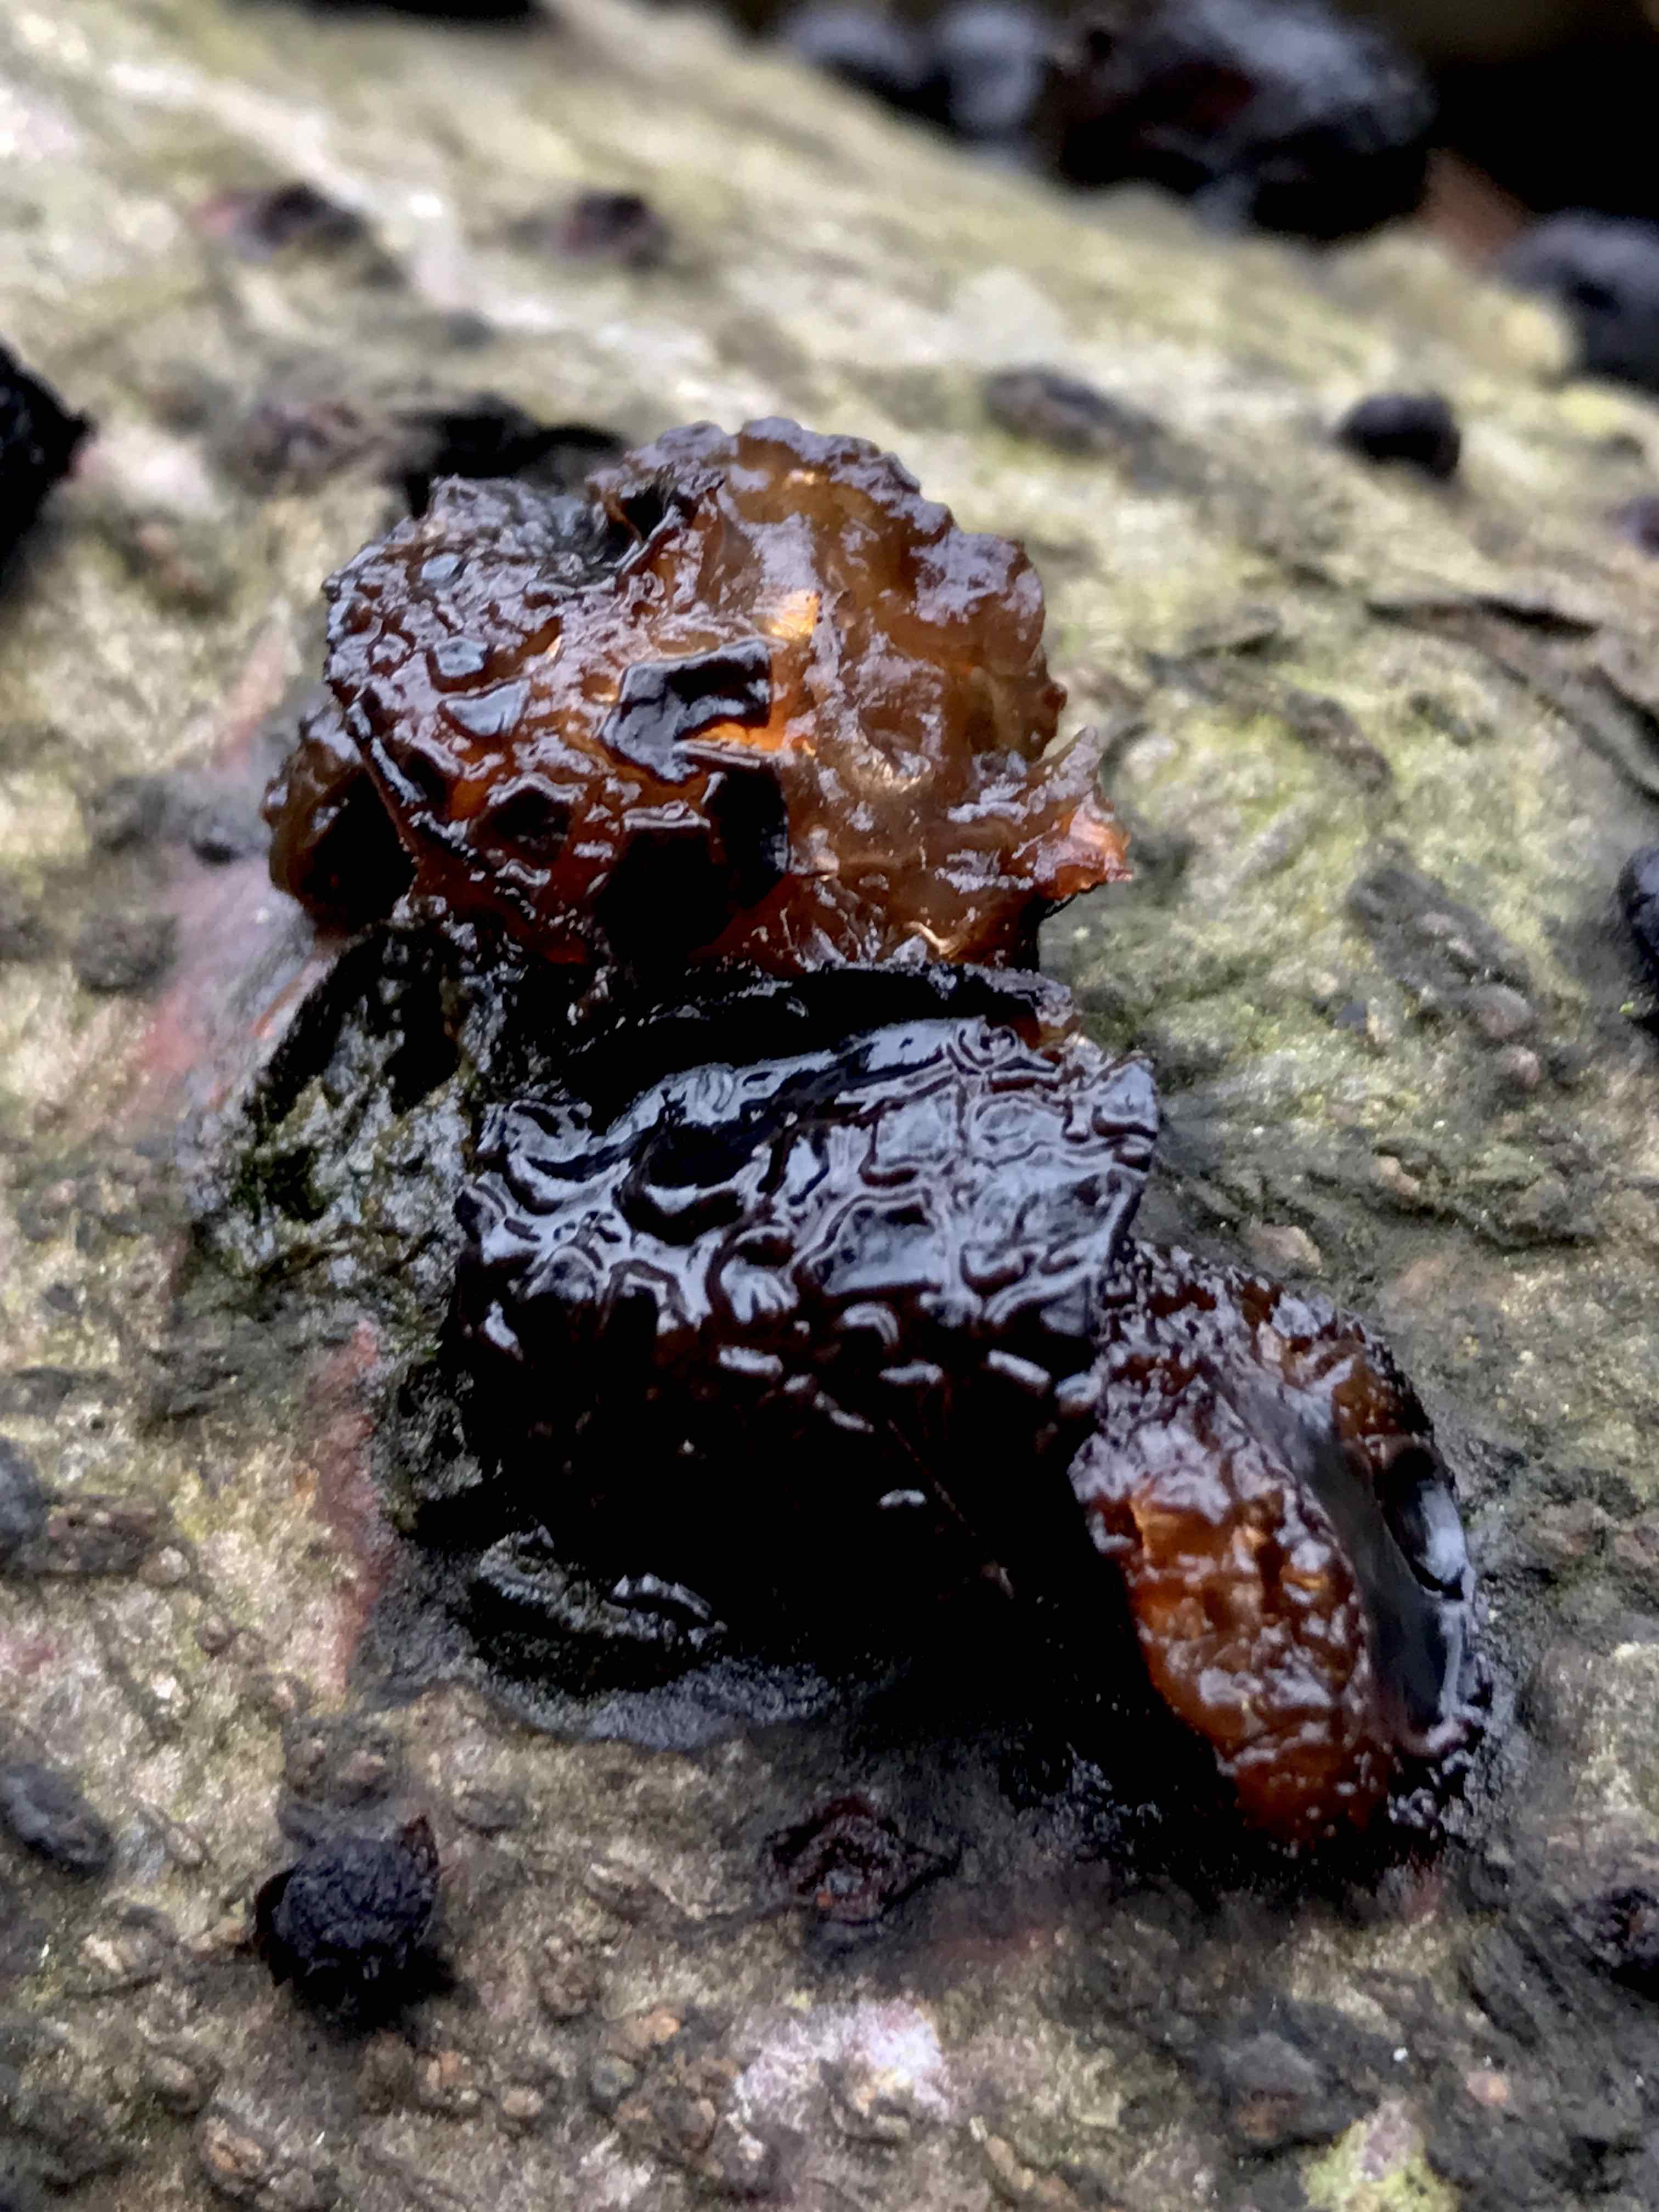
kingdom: Fungi
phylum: Ascomycota
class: Leotiomycetes
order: Phacidiales
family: Phacidiaceae
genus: Bulgaria
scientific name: Bulgaria inquinans
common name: afsmittende topsvamp
